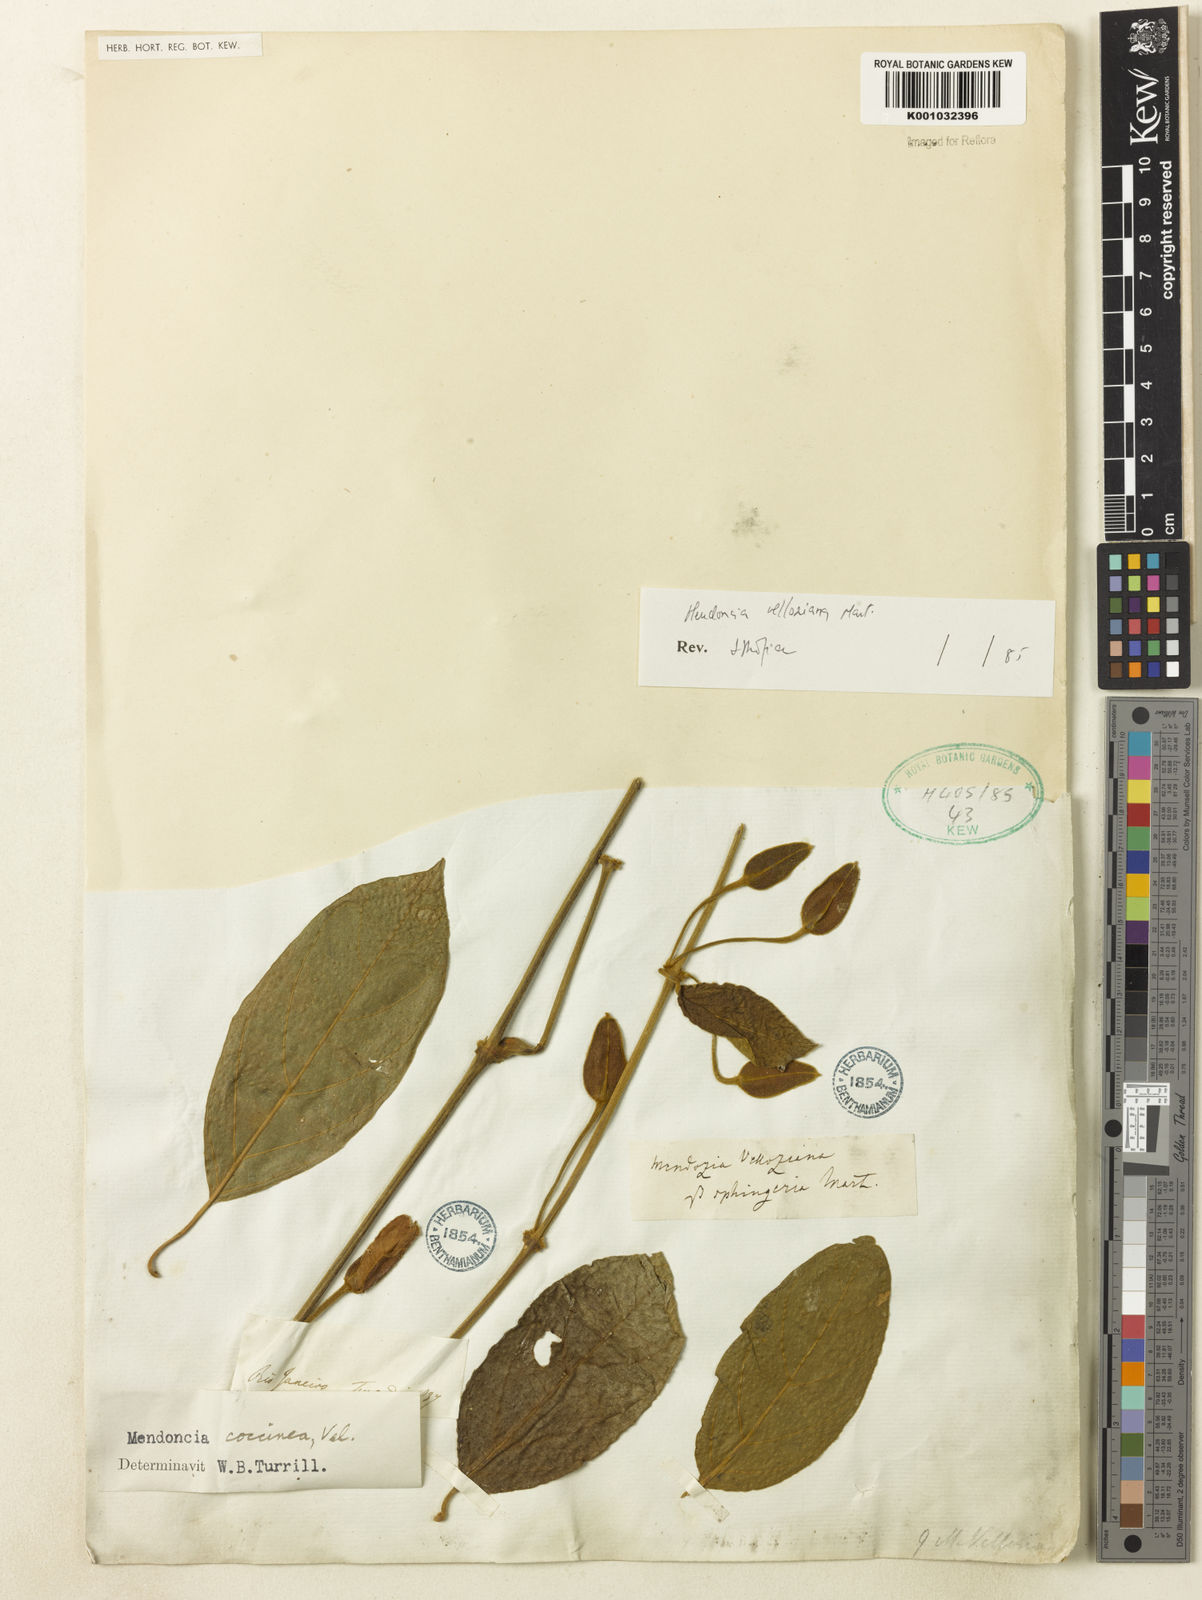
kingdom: Plantae
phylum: Tracheophyta
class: Magnoliopsida
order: Lamiales
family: Acanthaceae
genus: Mendoncia
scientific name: Mendoncia velloziana
